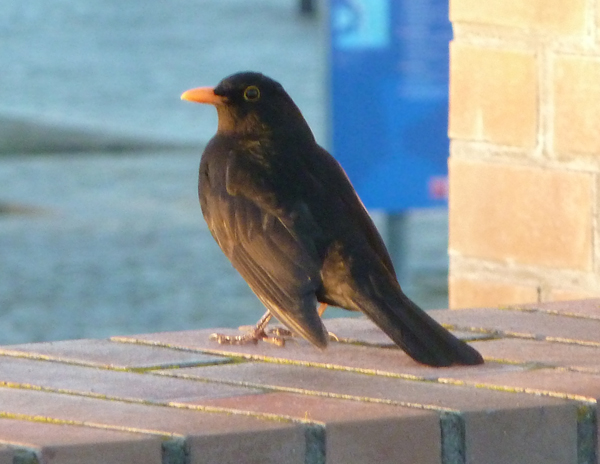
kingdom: Animalia
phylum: Chordata
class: Aves
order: Passeriformes
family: Turdidae
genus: Turdus
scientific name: Turdus merula
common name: Common blackbird
